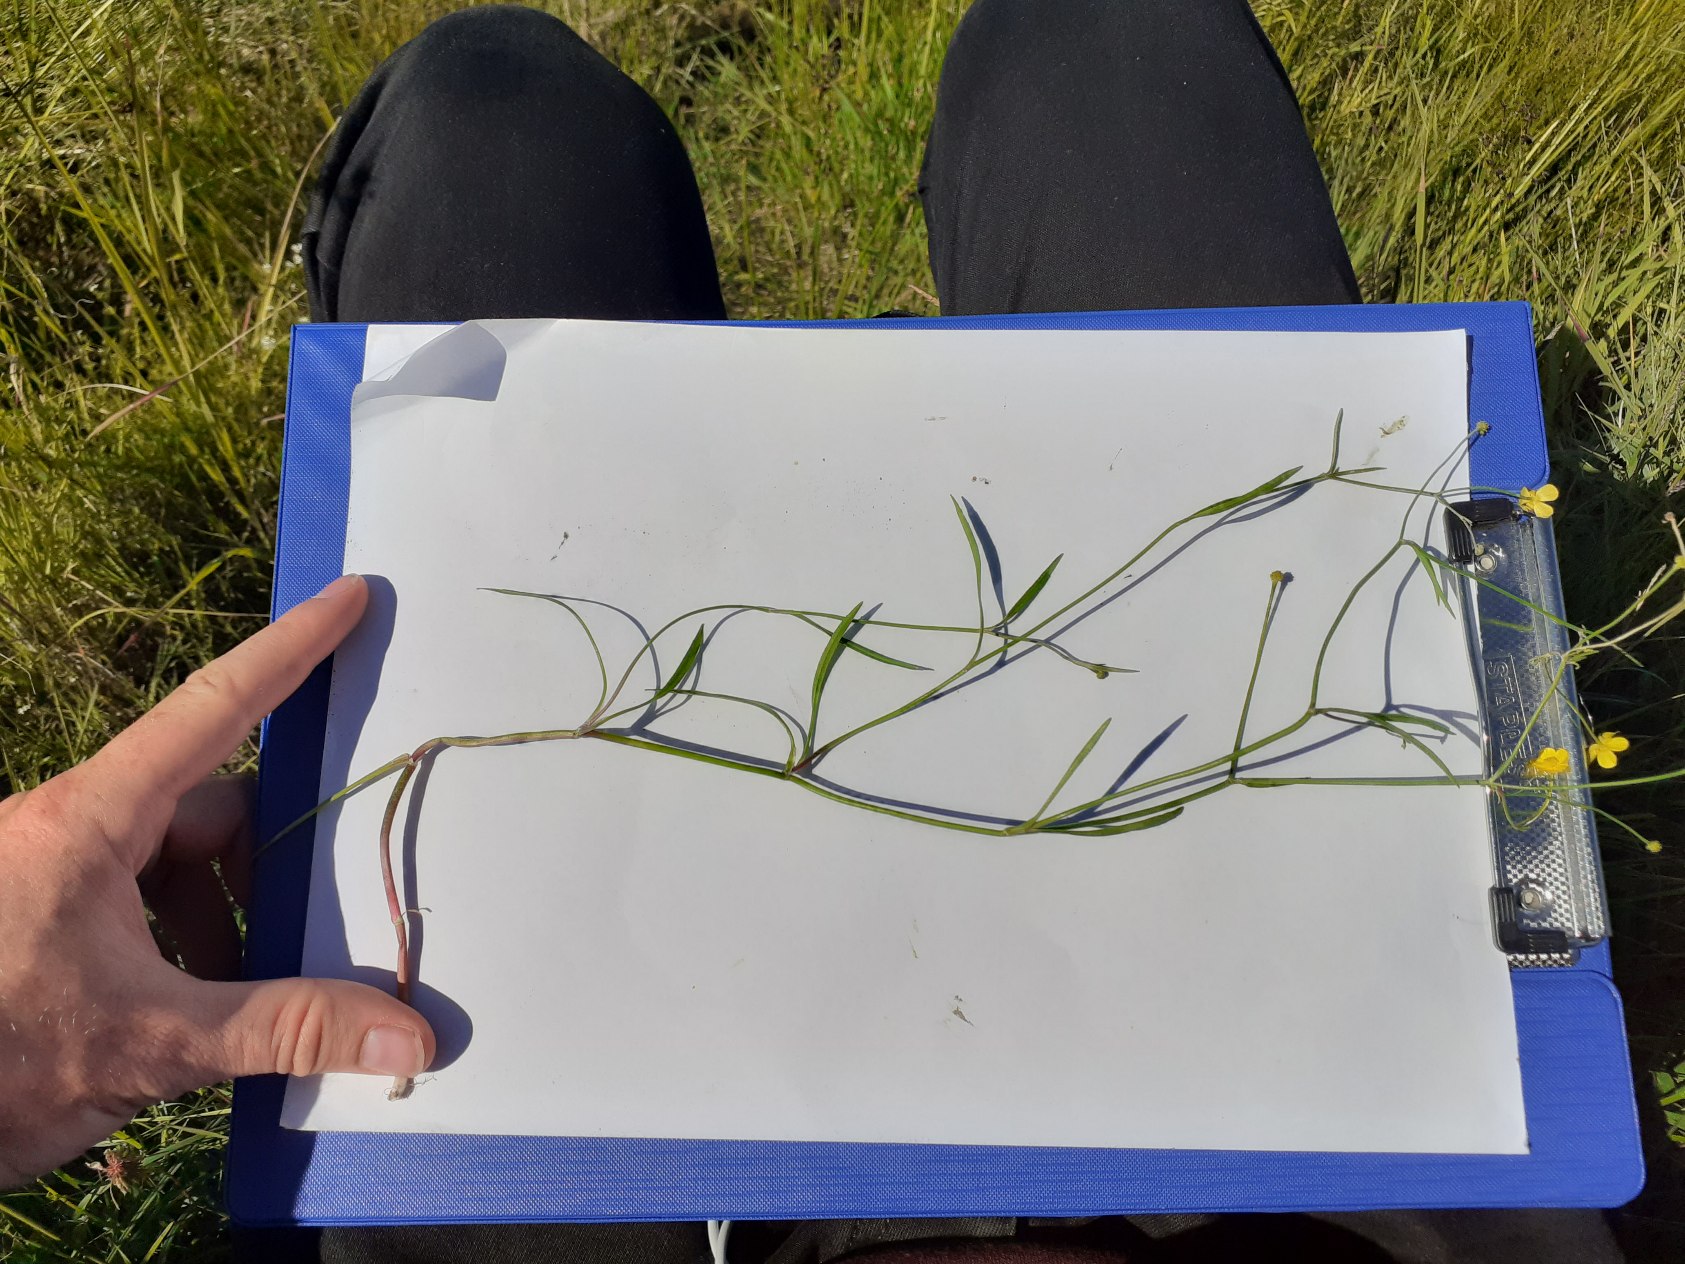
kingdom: Plantae
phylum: Tracheophyta
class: Magnoliopsida
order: Ranunculales
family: Ranunculaceae
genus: Ranunculus
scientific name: Ranunculus flammula
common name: Kær-ranunkel
